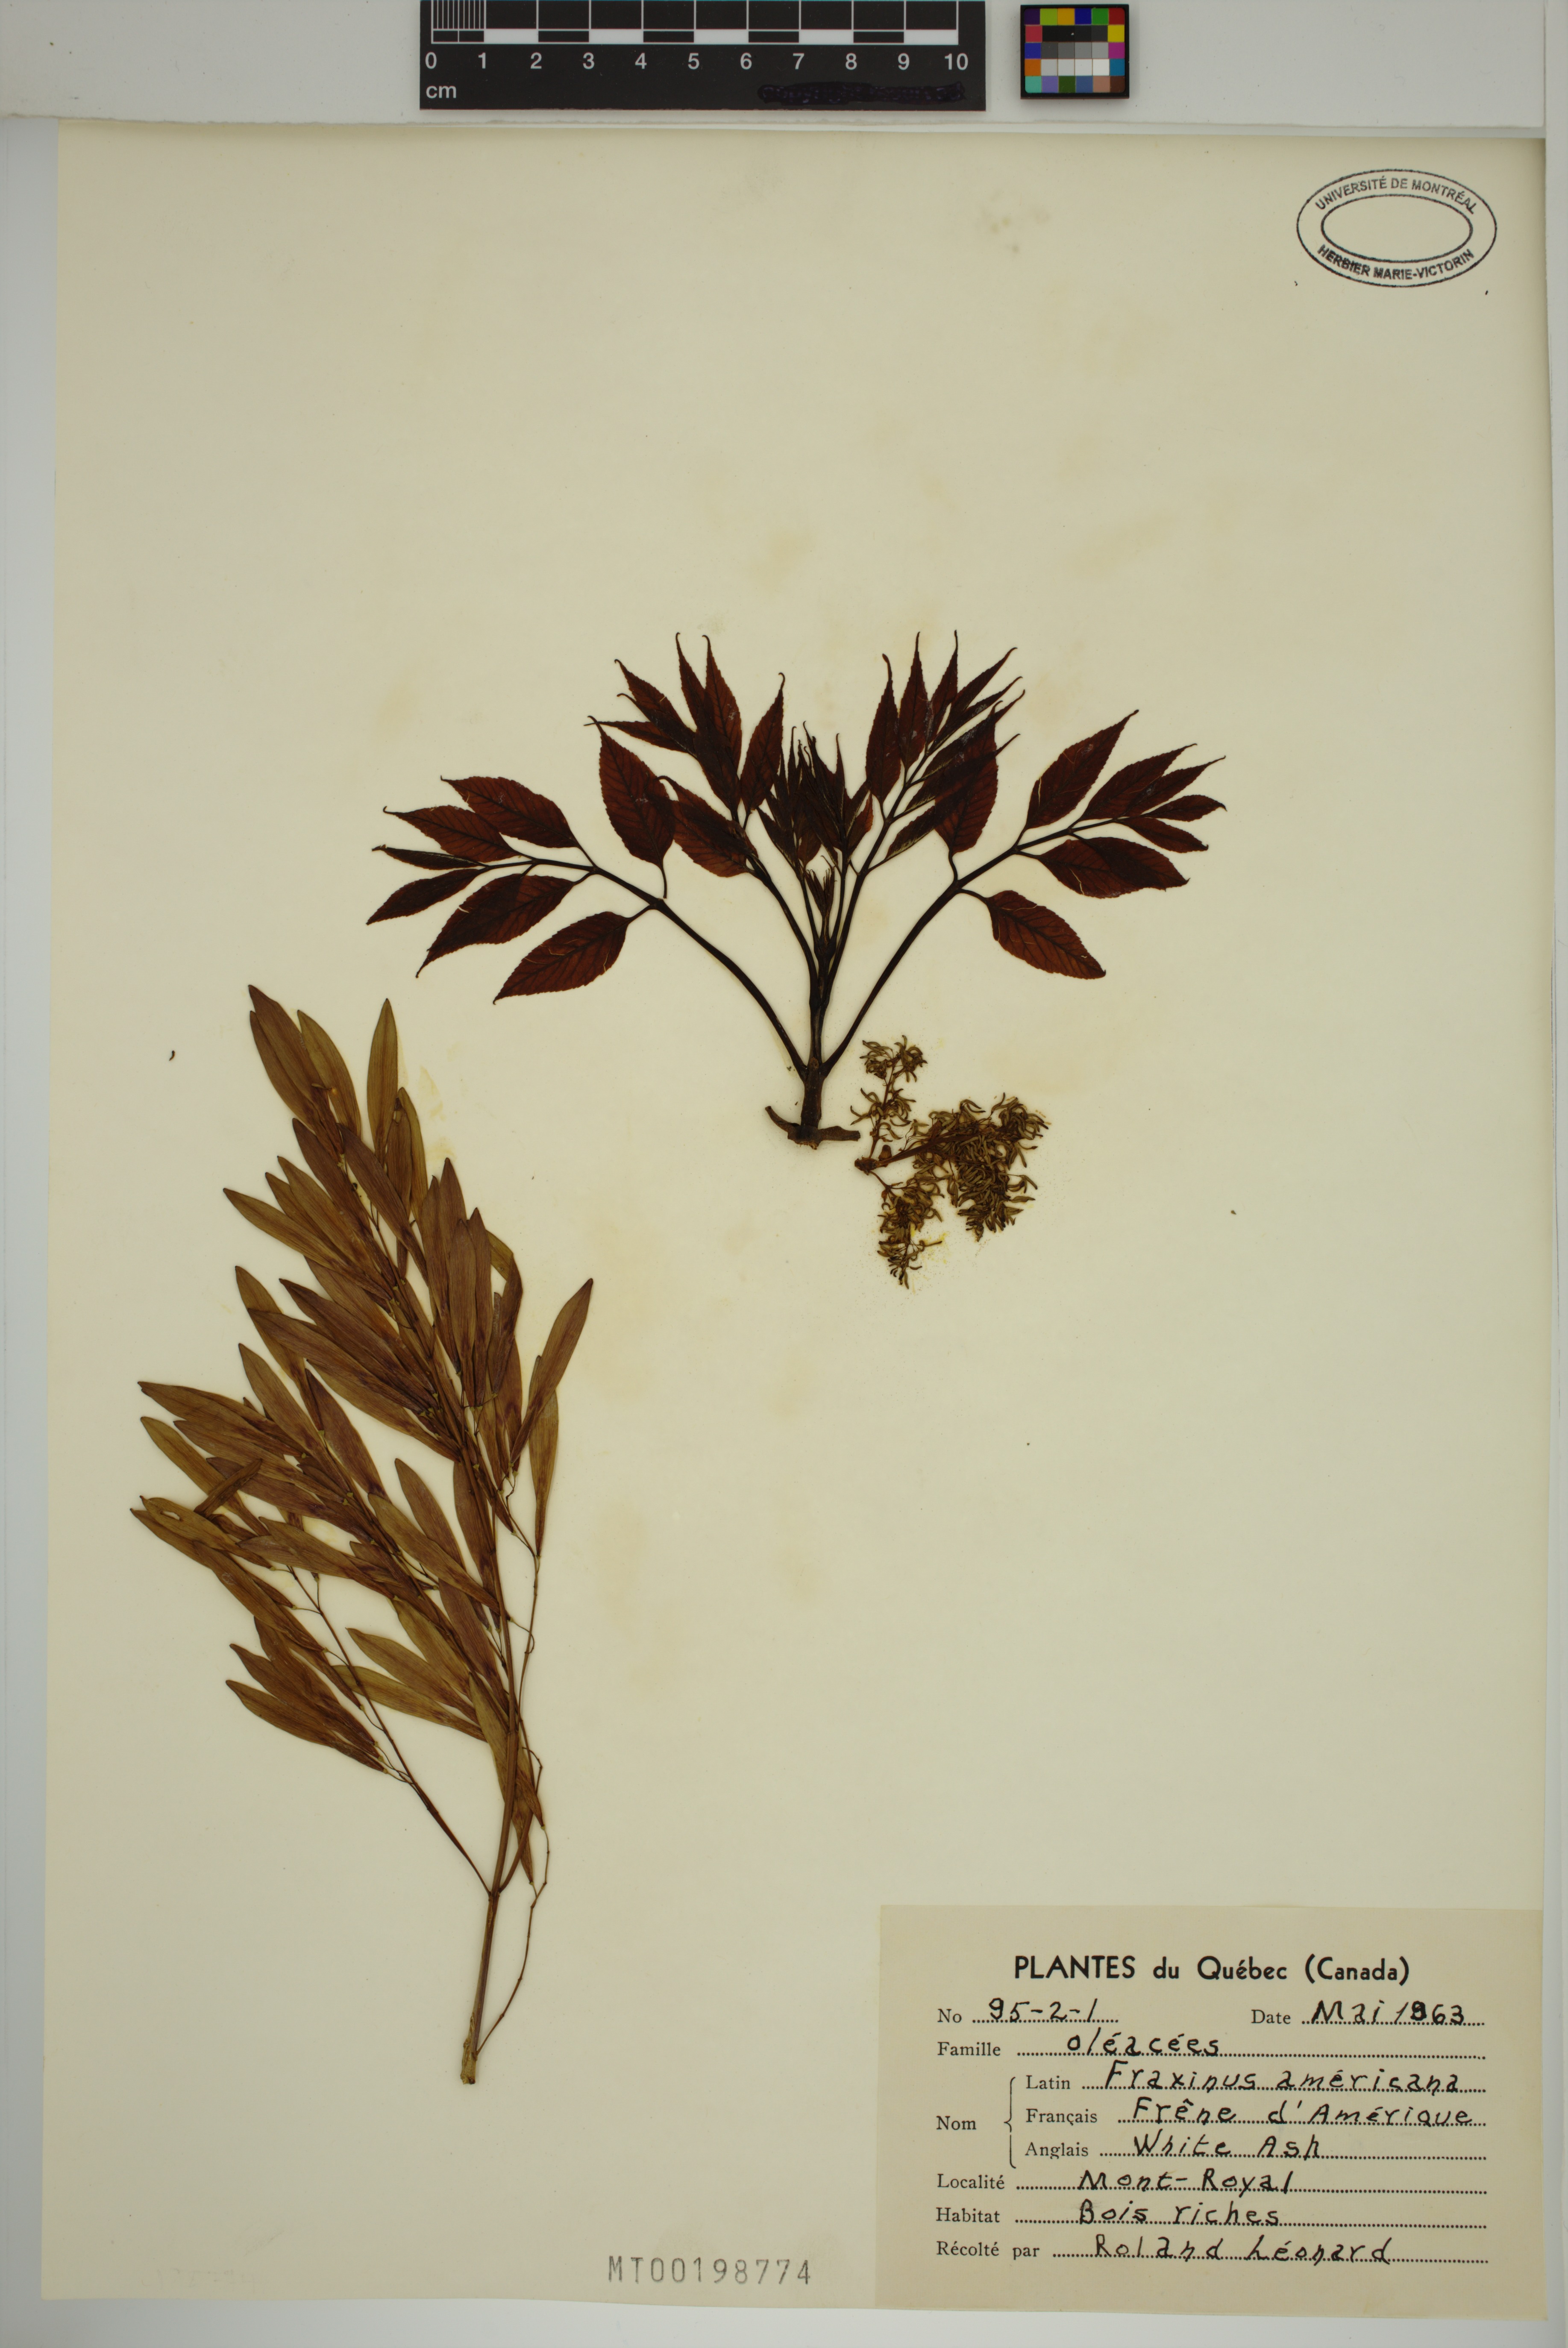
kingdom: Plantae
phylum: Tracheophyta
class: Magnoliopsida
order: Lamiales
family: Oleaceae
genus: Fraxinus
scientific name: Fraxinus americana
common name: White ash
